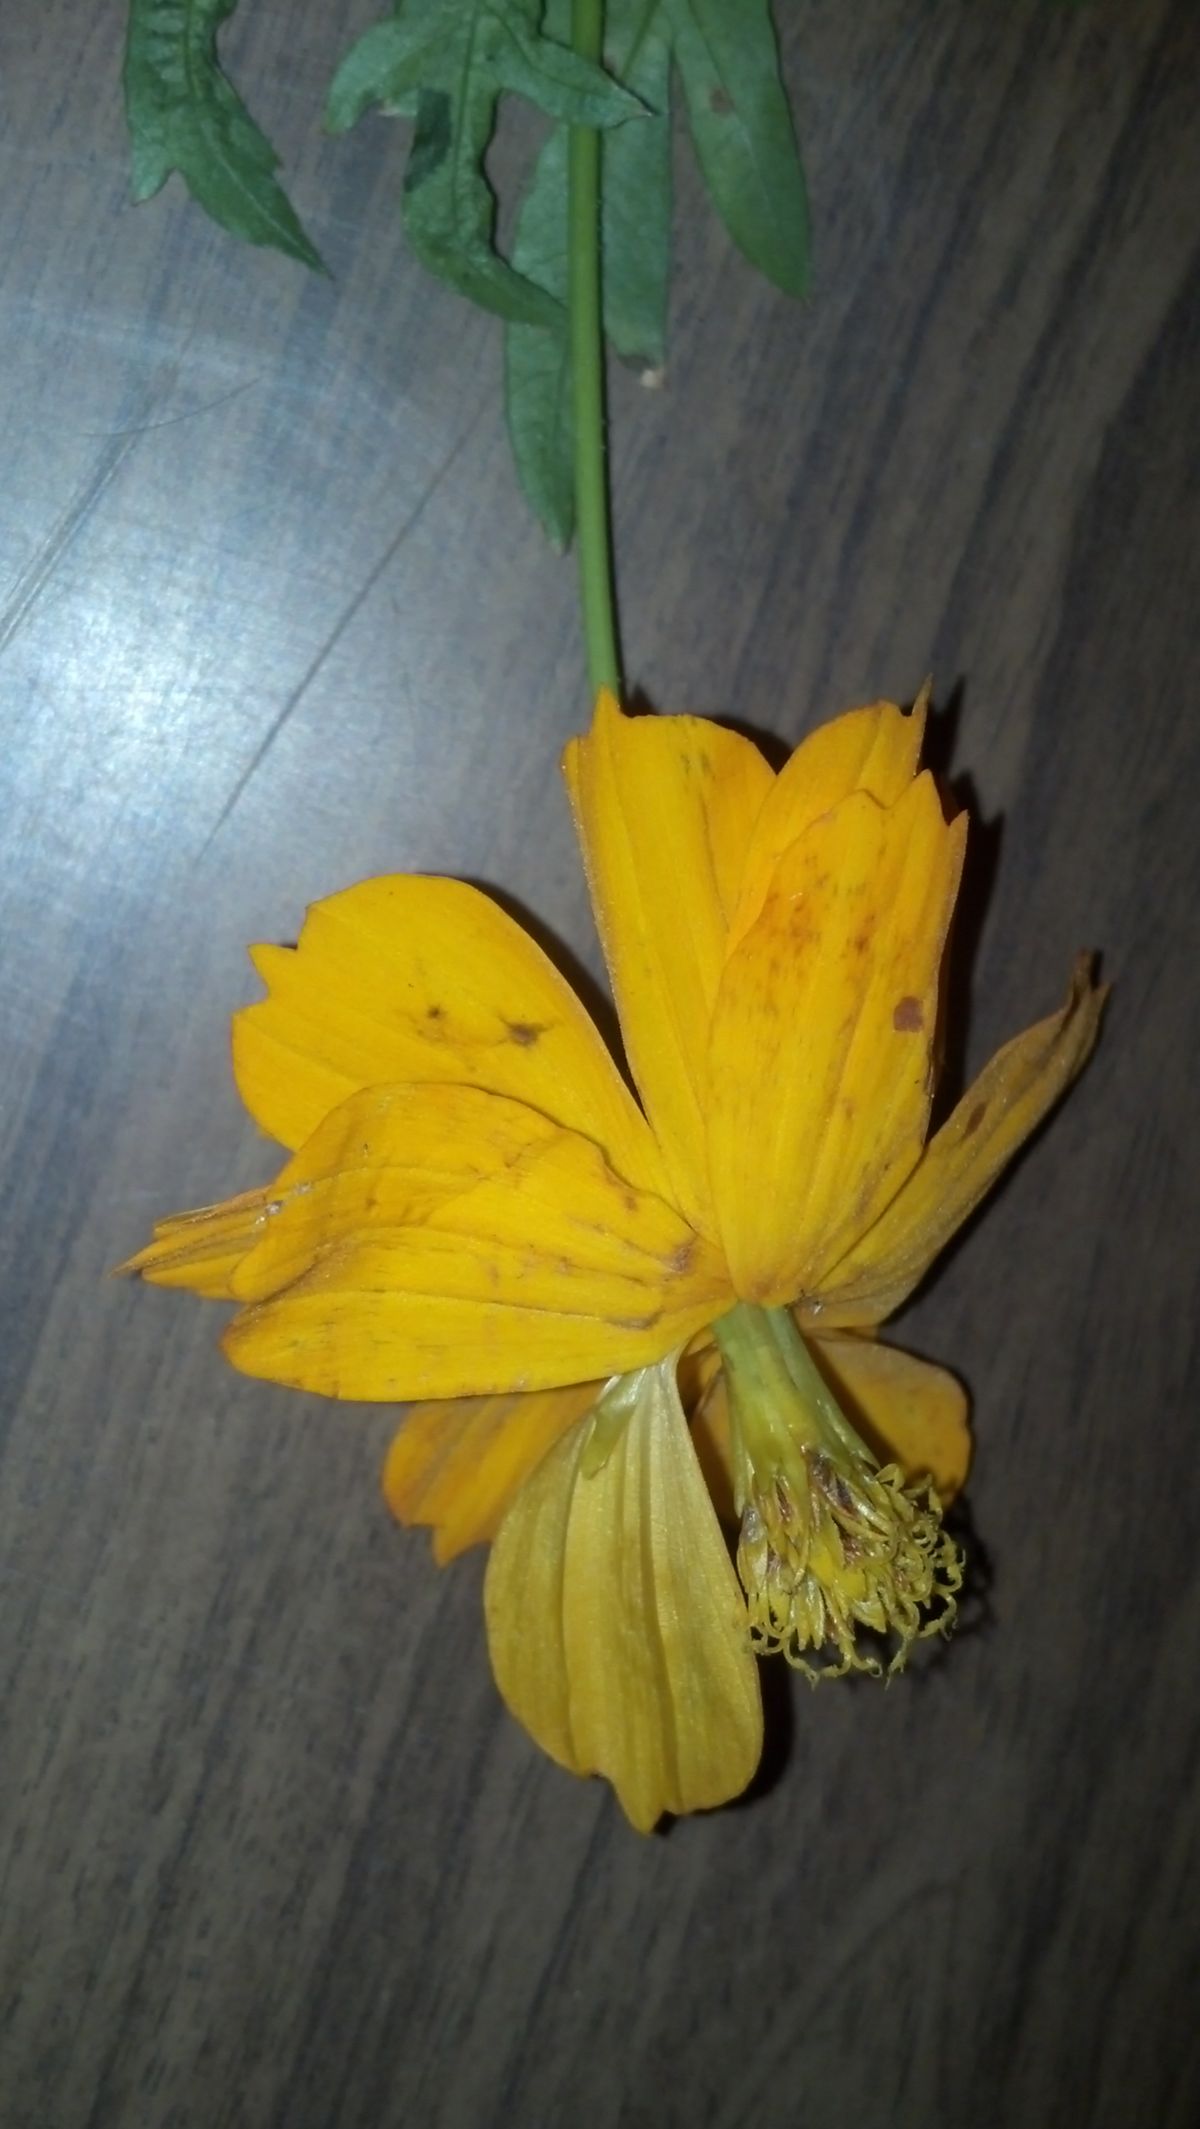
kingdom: Plantae
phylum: Tracheophyta
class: Magnoliopsida
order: Asterales
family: Asteraceae
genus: Cosmos
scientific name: Cosmos sulphureus
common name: Sulphur cosmos
